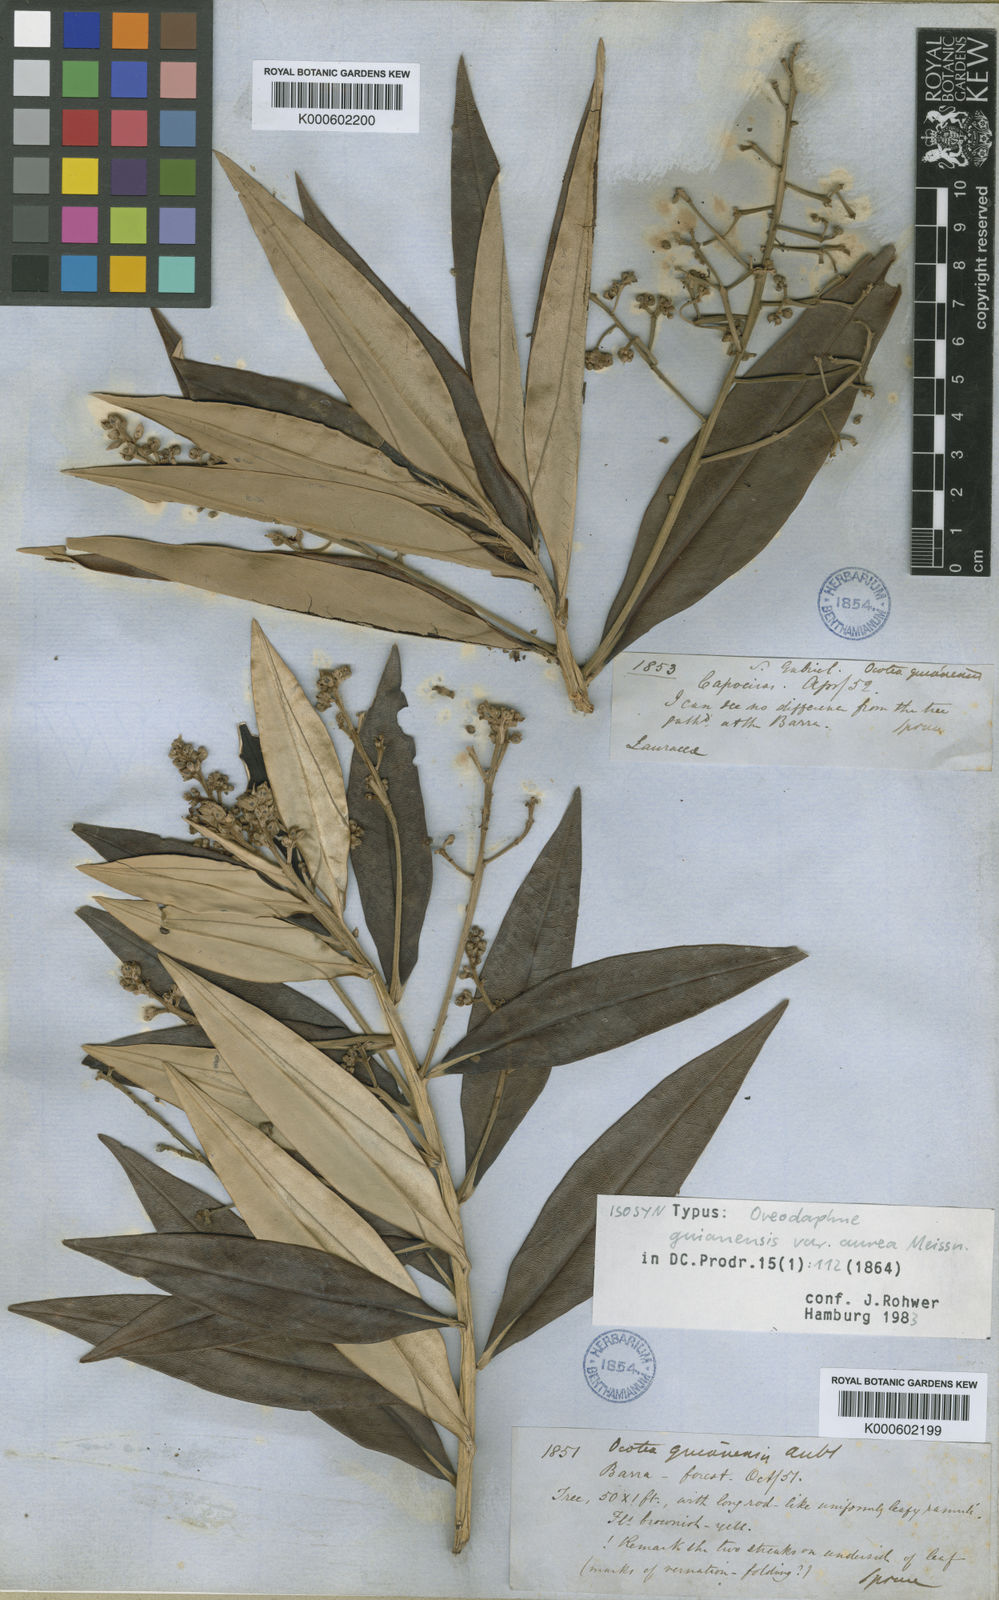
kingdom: Plantae
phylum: Tracheophyta
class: Magnoliopsida
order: Laurales
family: Lauraceae
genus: Ocotea
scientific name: Ocotea guianensis
